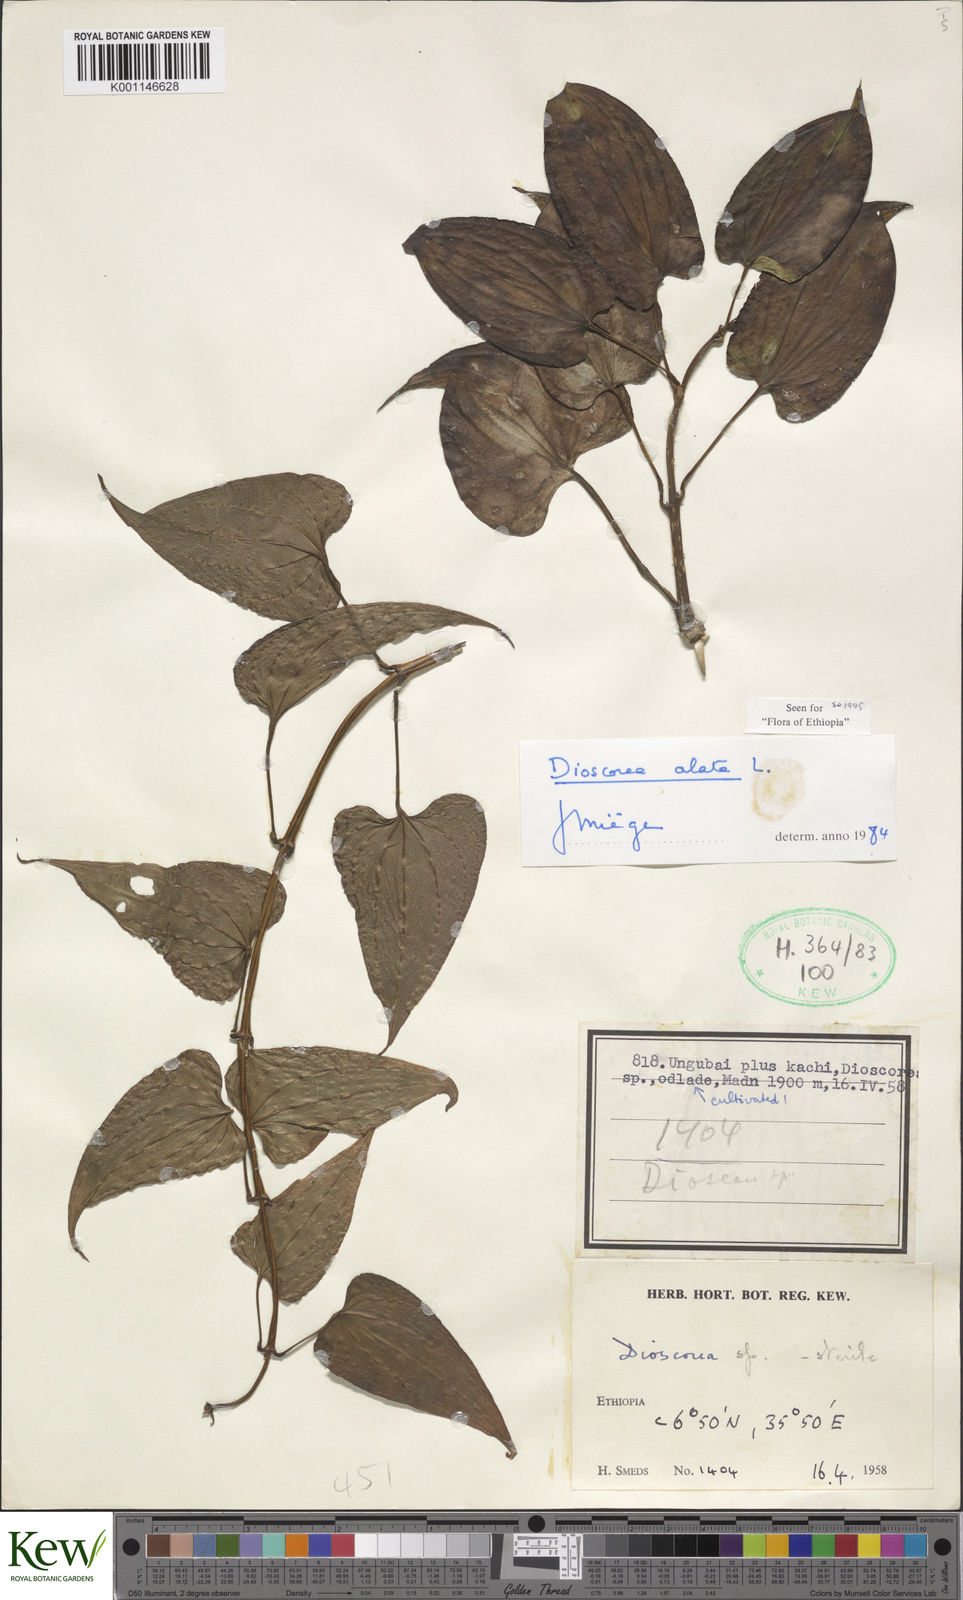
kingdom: Plantae
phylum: Tracheophyta
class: Liliopsida
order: Dioscoreales
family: Dioscoreaceae
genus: Dioscorea
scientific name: Dioscorea alata
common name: Water yam
